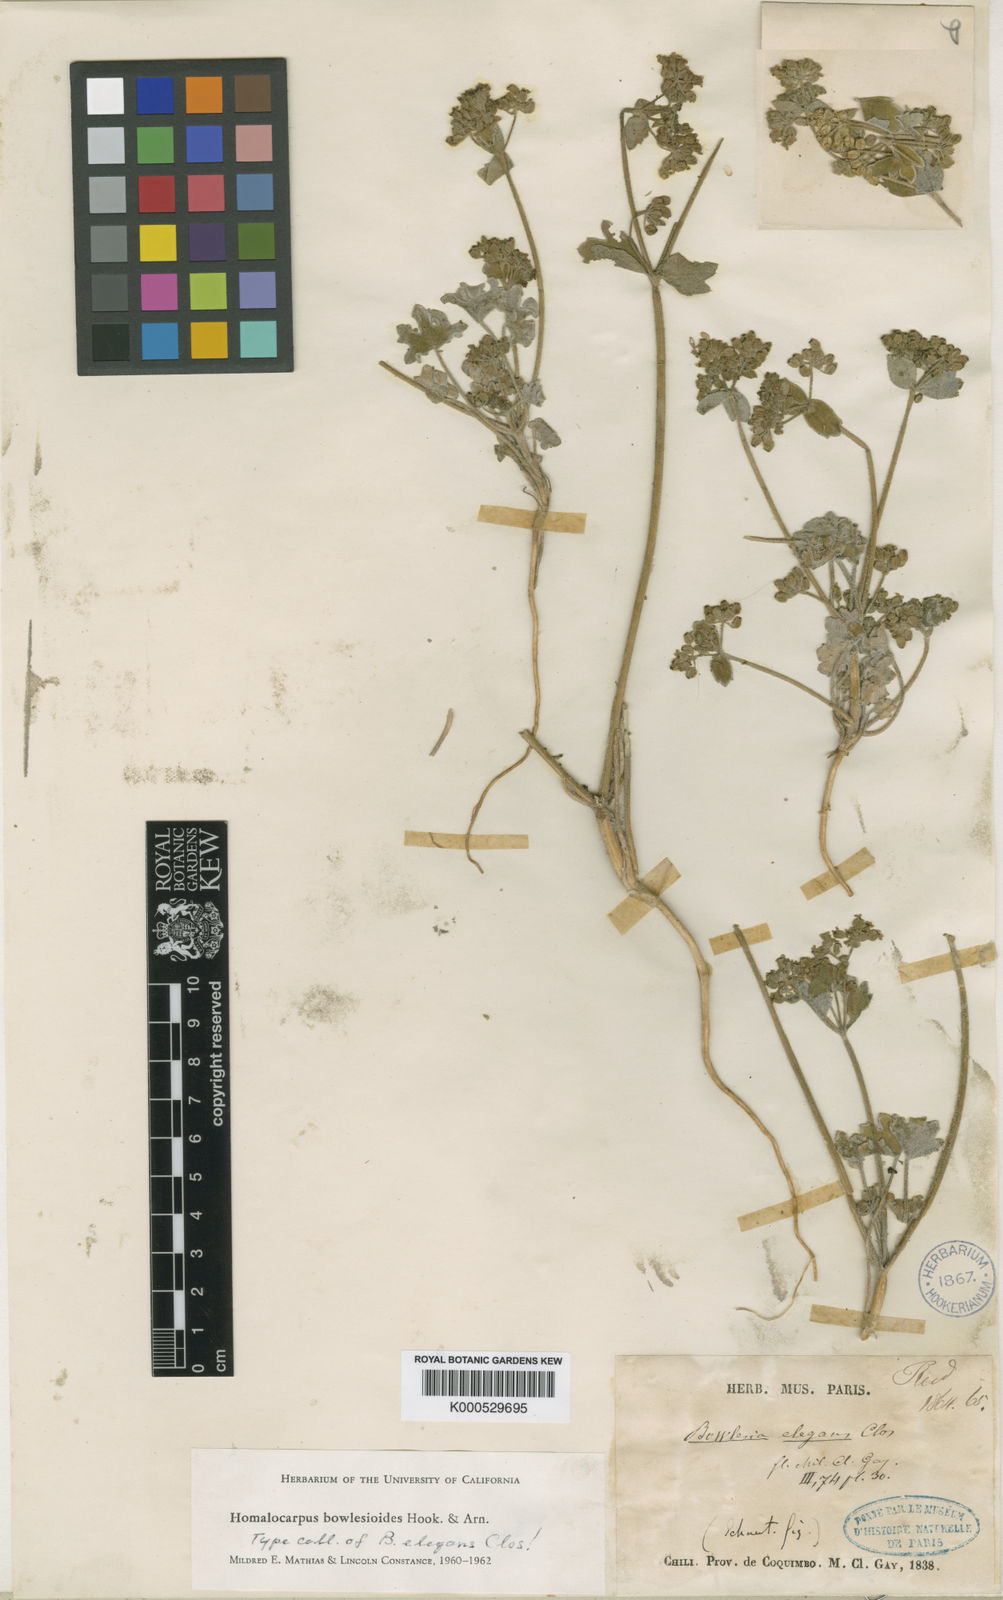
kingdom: Plantae
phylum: Tracheophyta
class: Magnoliopsida
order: Apiales
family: Apiaceae
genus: Homalocarpus
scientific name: Homalocarpus bowlesioides
